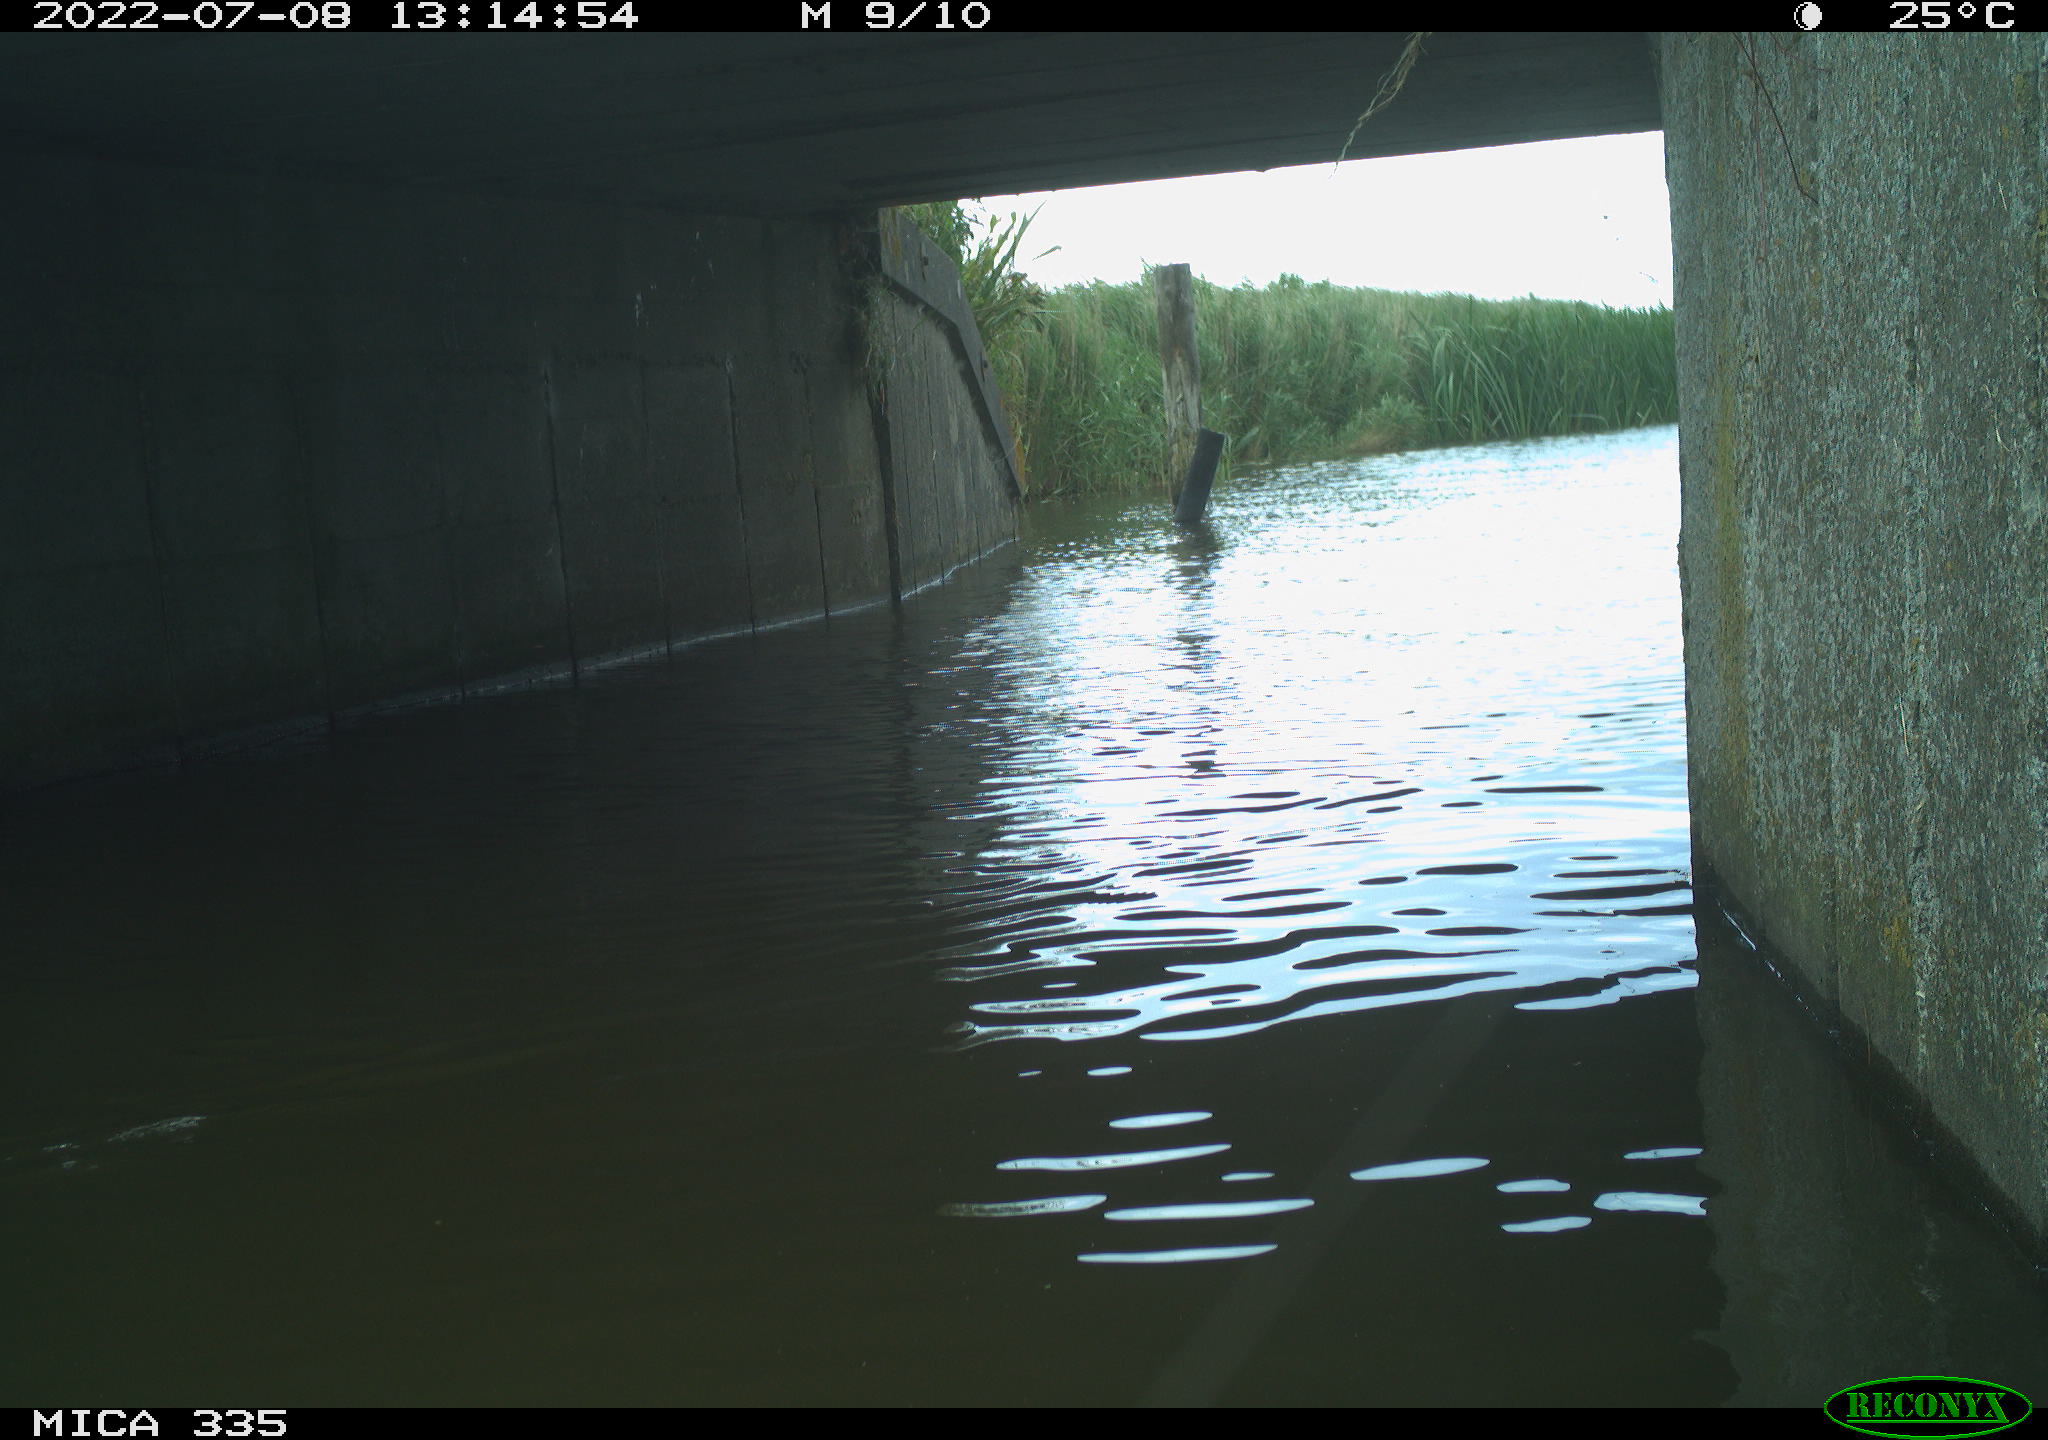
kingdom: Animalia
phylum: Chordata
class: Aves
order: Anseriformes
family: Anatidae
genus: Anas
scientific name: Anas platyrhynchos
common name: Mallard
